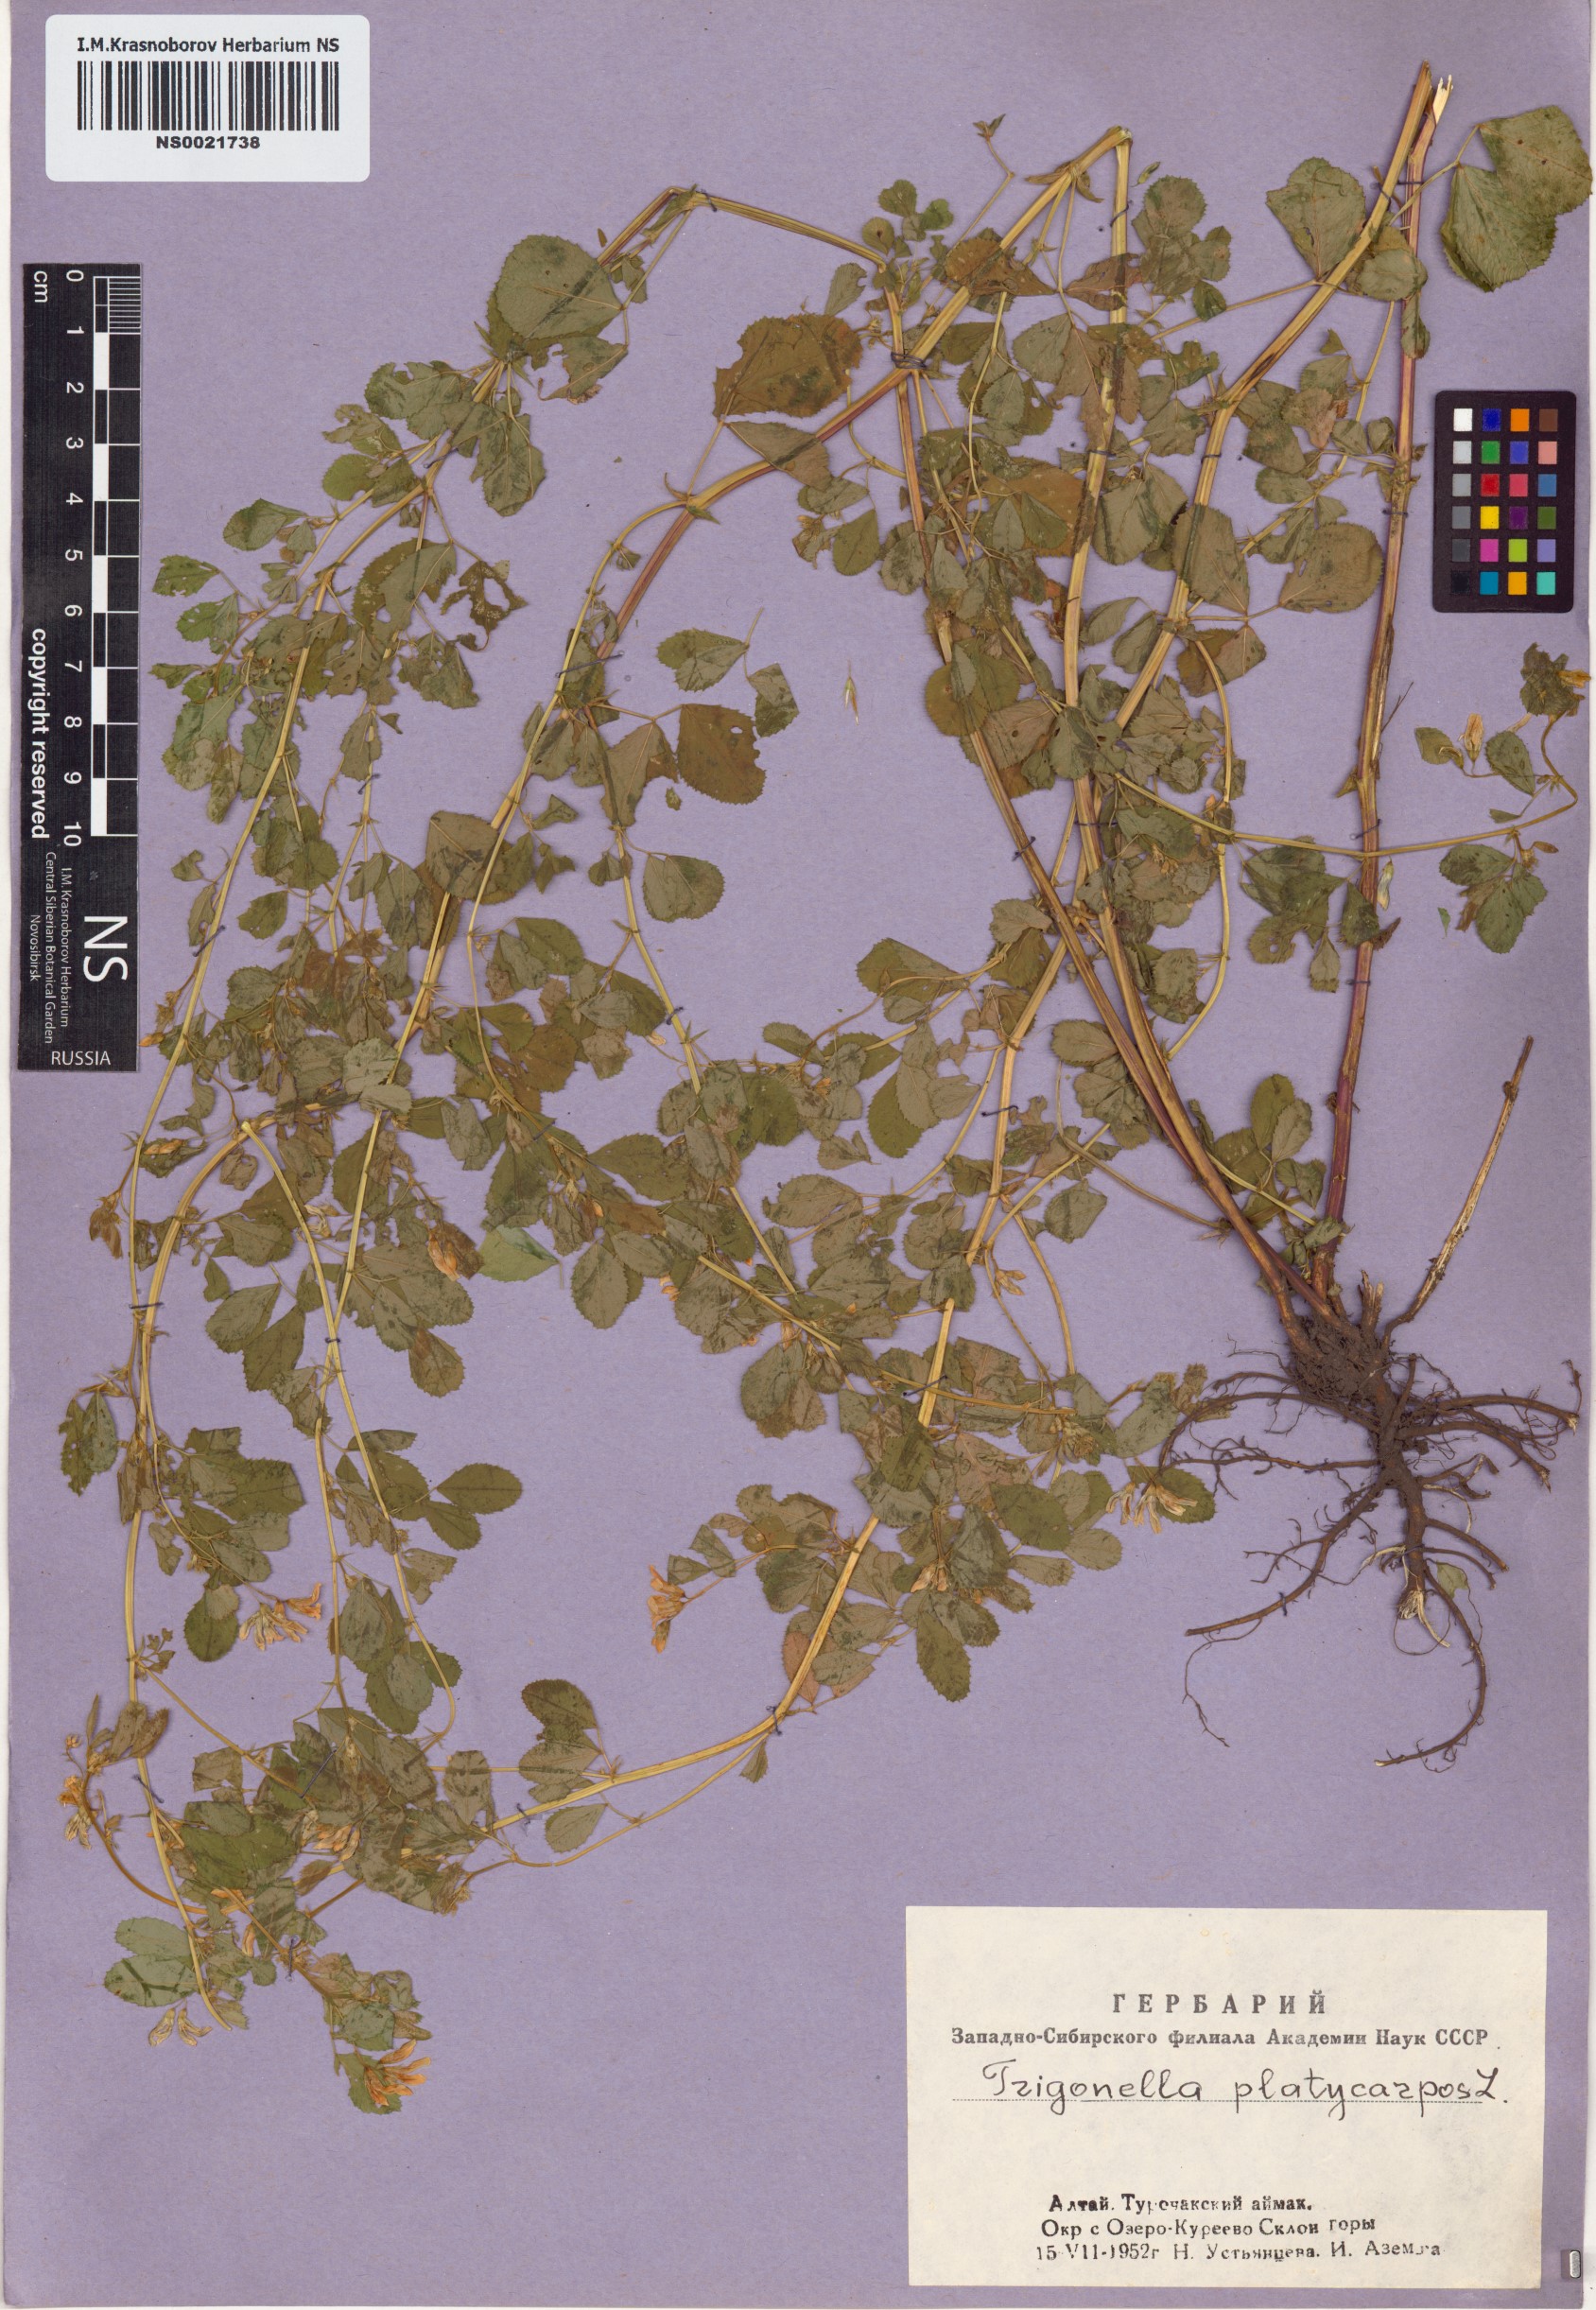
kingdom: Plantae
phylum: Tracheophyta
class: Magnoliopsida
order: Fabales
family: Fabaceae
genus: Medicago
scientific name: Medicago platycarpos
